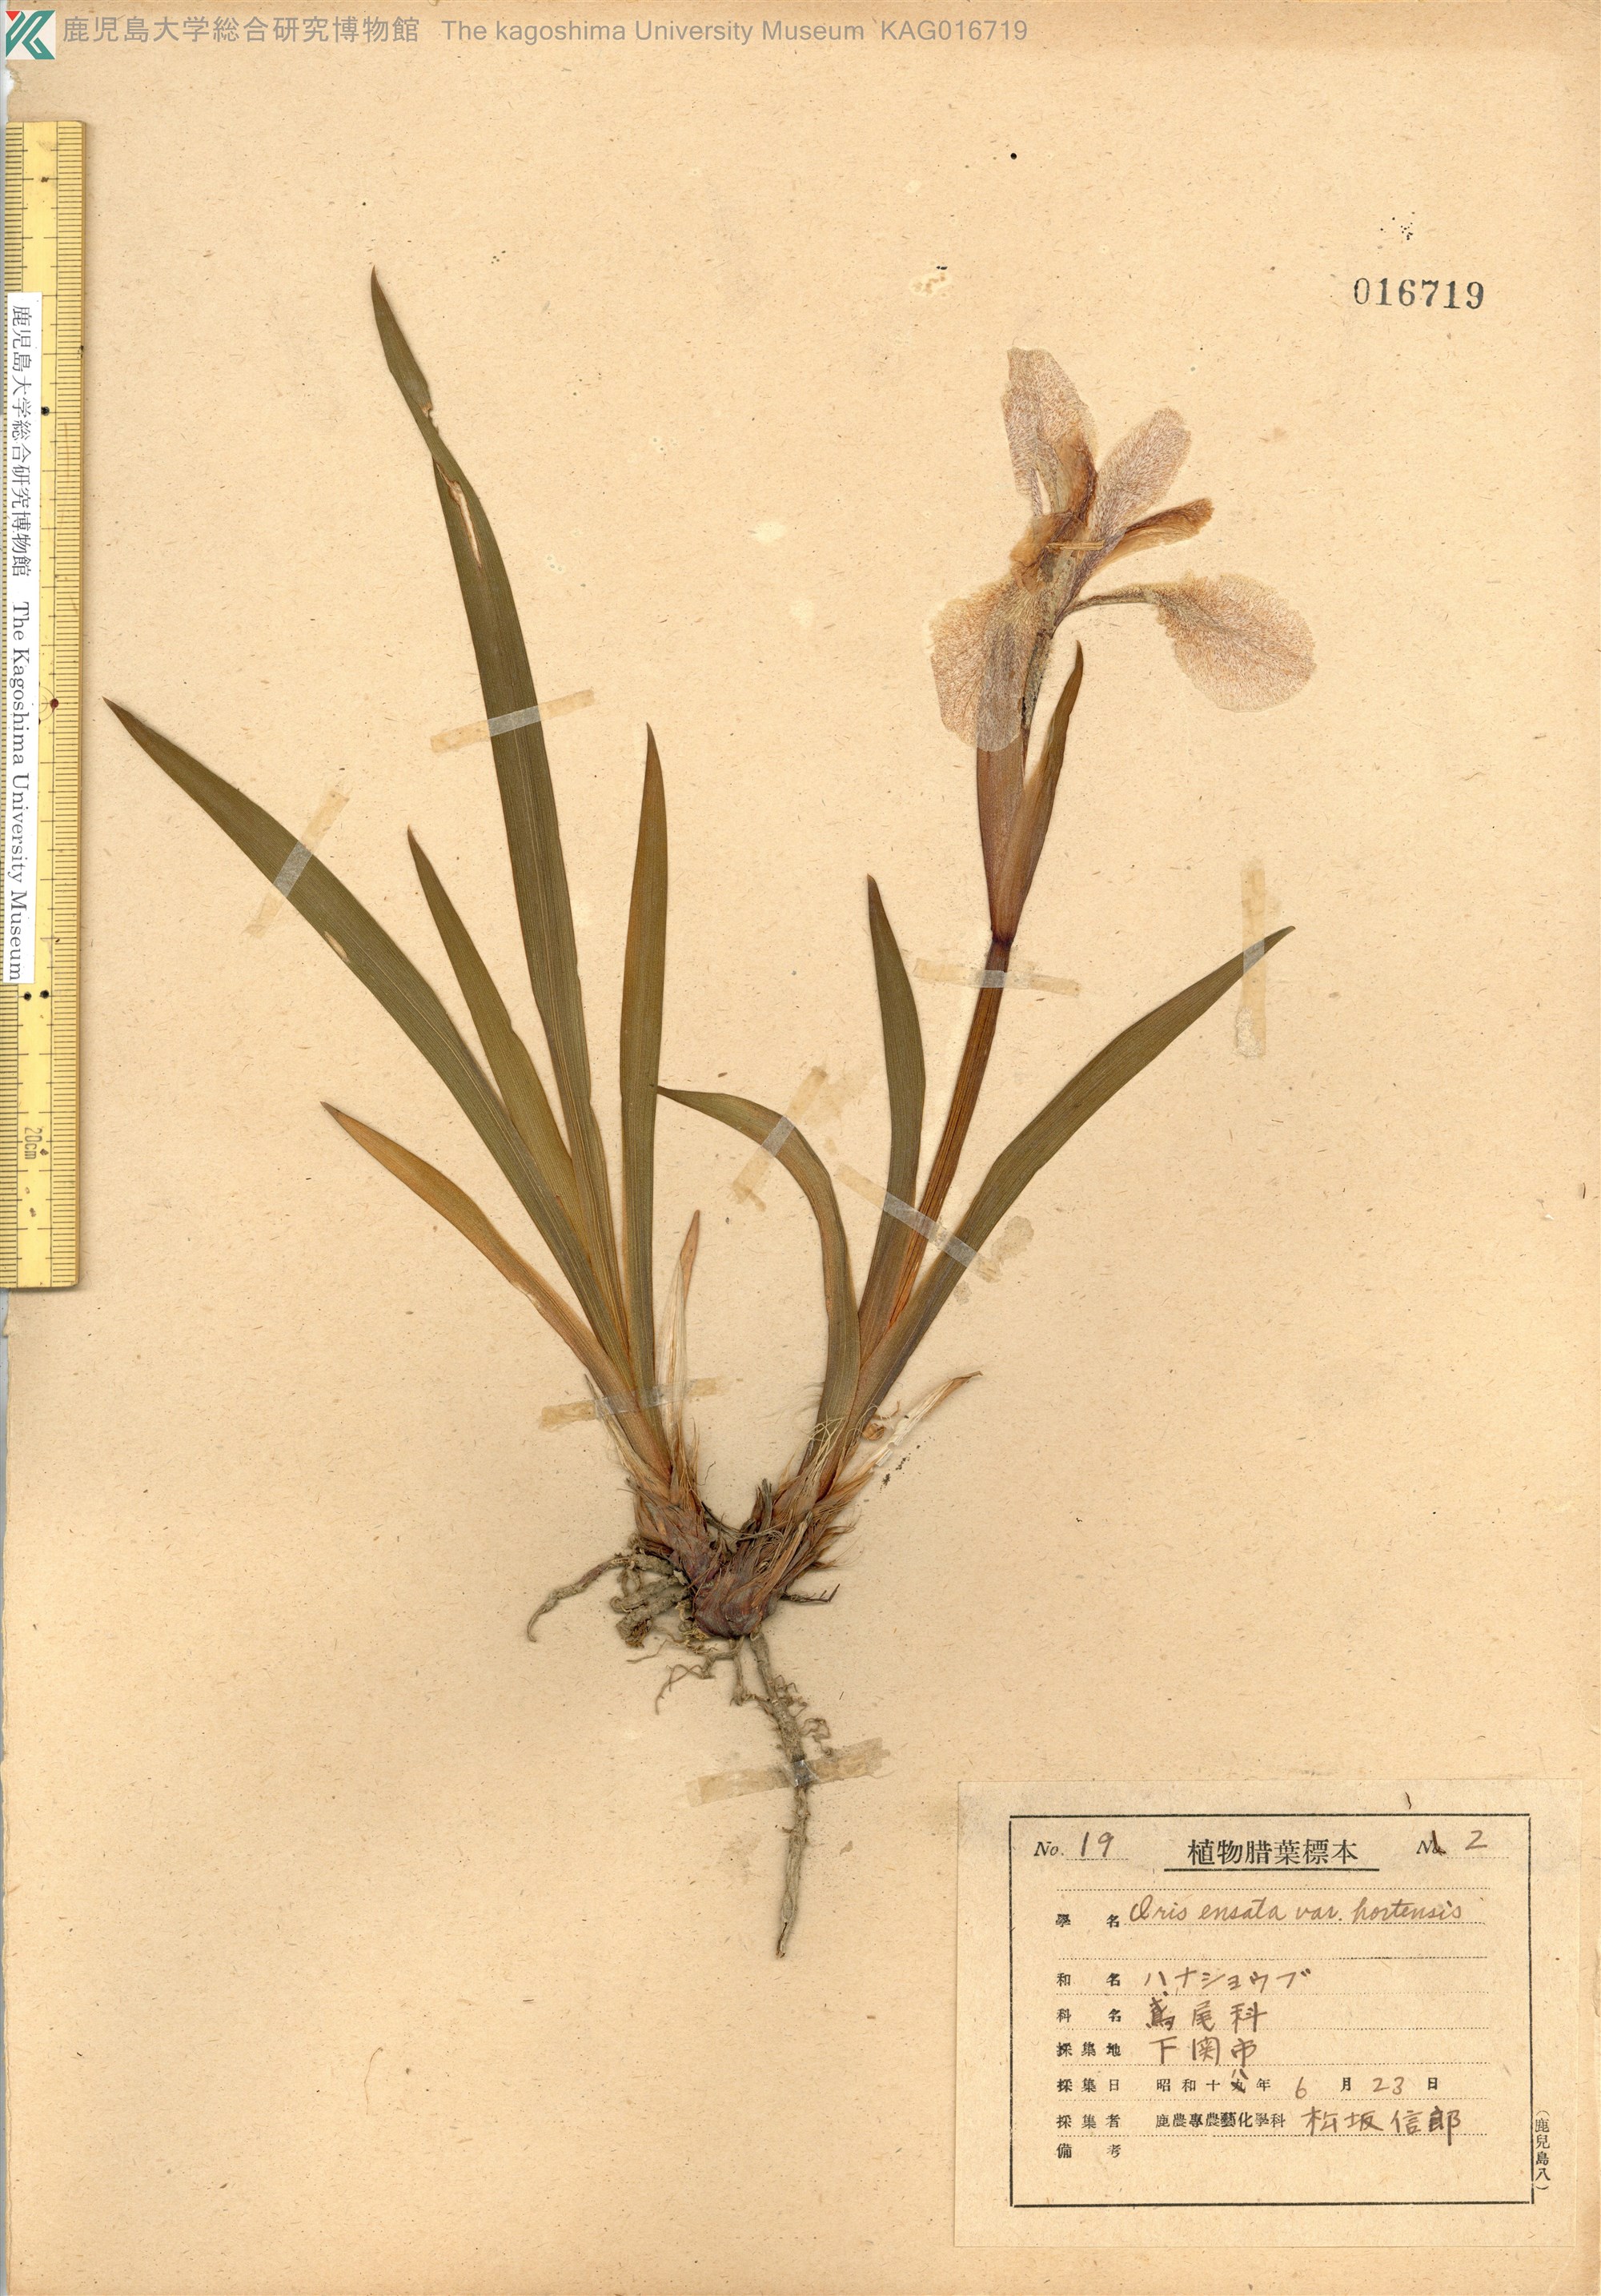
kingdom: Plantae
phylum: Tracheophyta
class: Liliopsida
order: Asparagales
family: Iridaceae
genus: Iris
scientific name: Iris ensata
